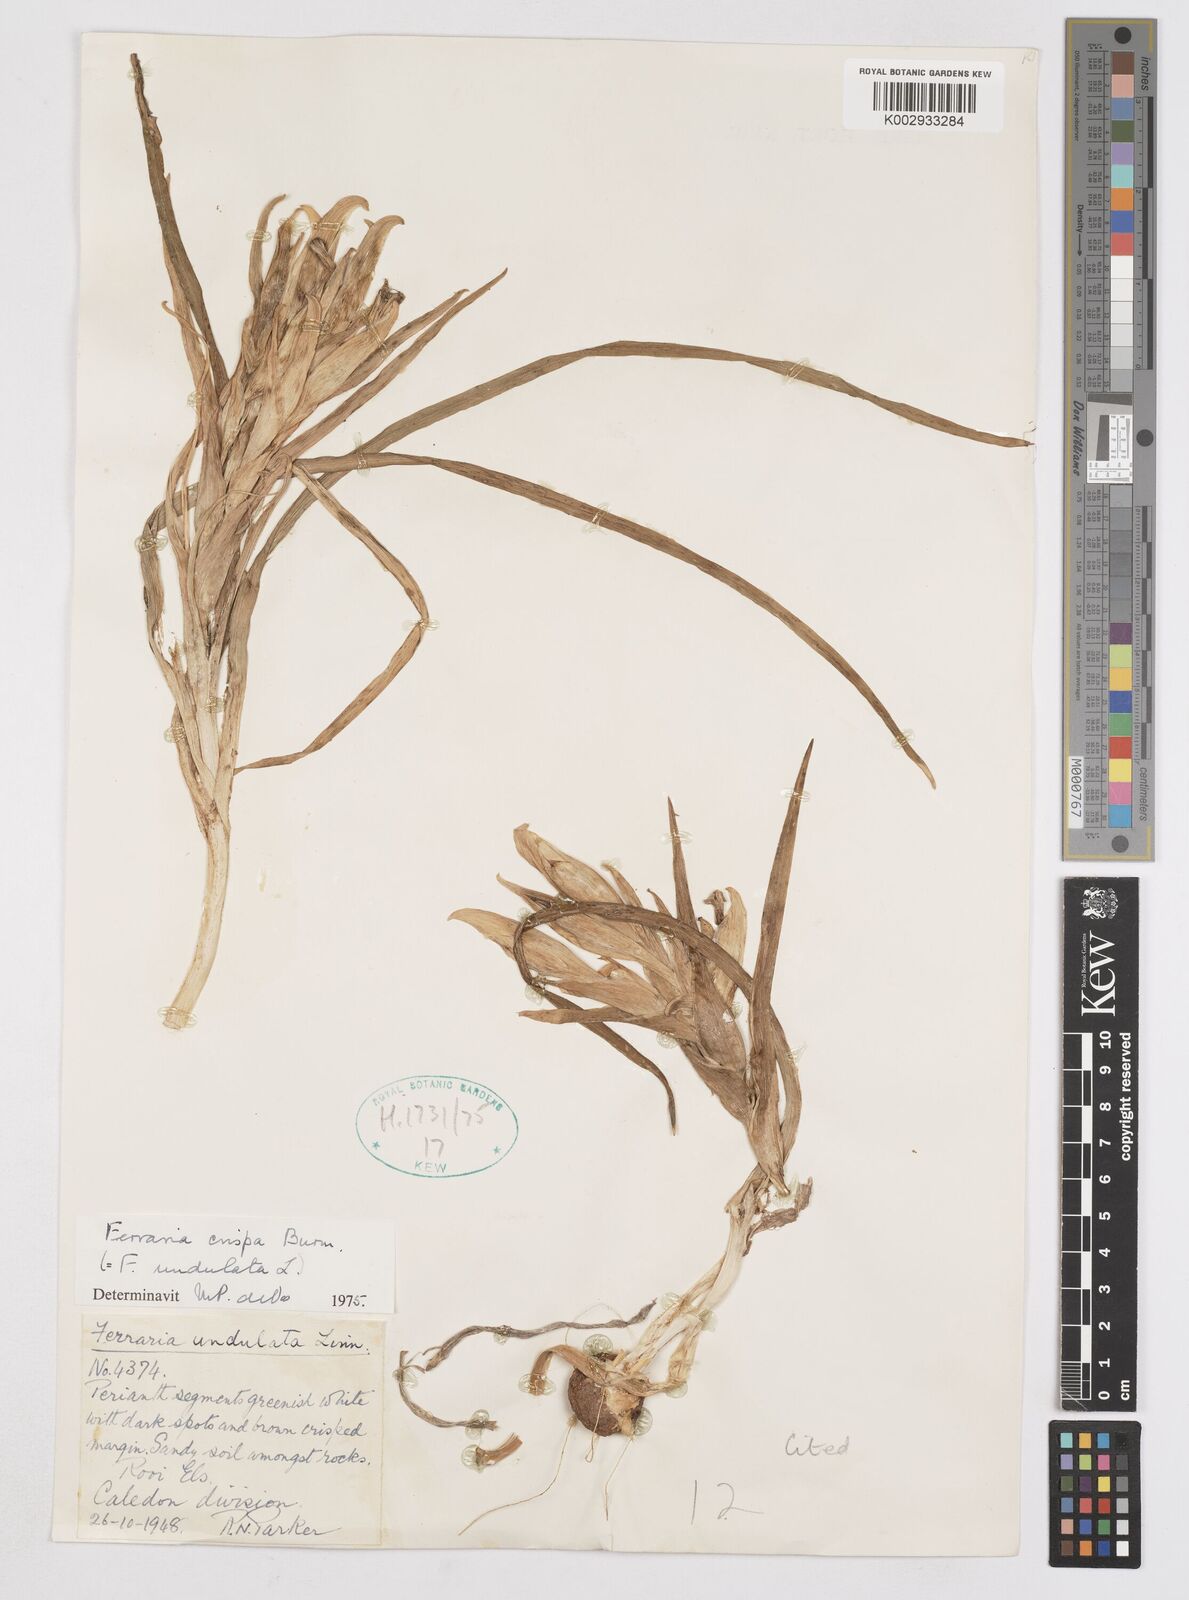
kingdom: Plantae
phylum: Tracheophyta
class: Liliopsida
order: Asparagales
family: Iridaceae
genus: Ferraria
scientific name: Ferraria crispa
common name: Black-flag
